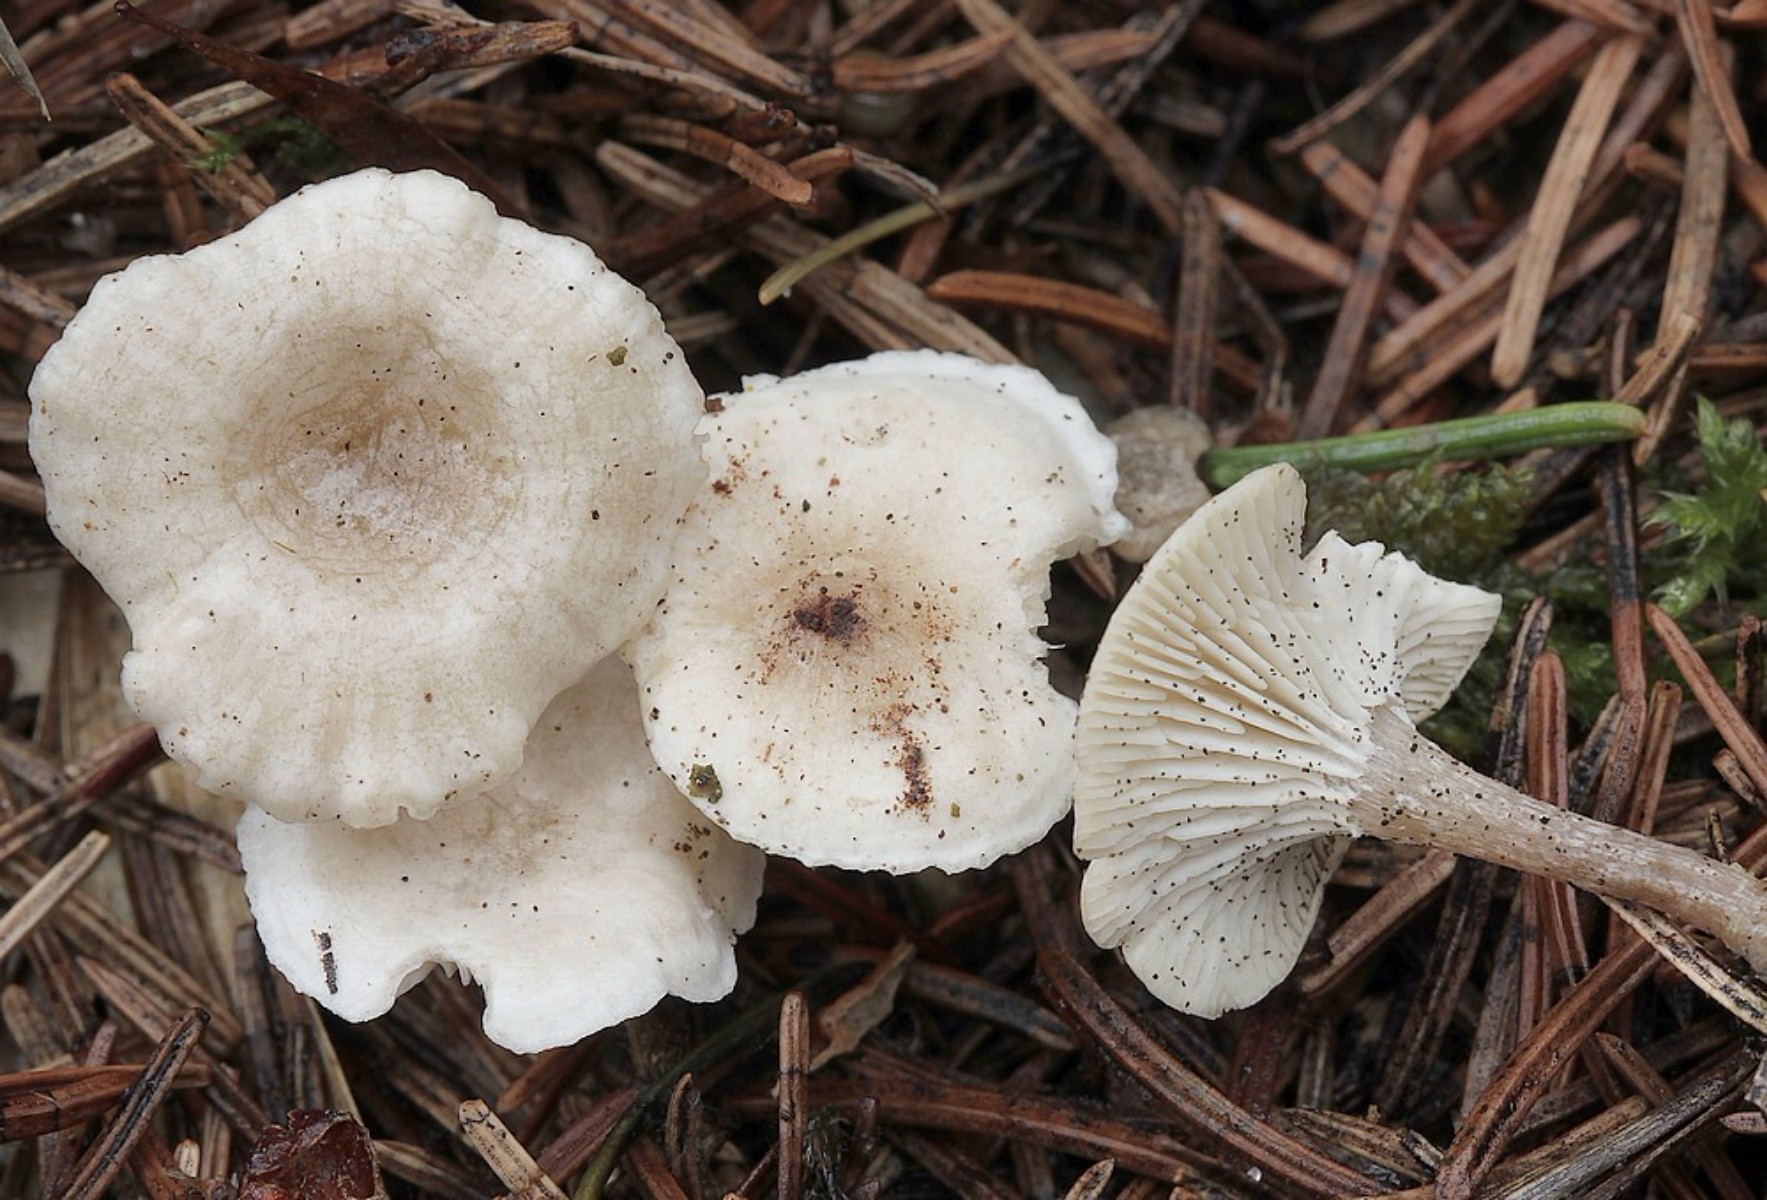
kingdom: Fungi
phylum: Basidiomycota
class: Agaricomycetes
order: Agaricales
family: Tricholomataceae
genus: Leucocybe
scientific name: Leucocybe candicans
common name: kridt-tragthat
